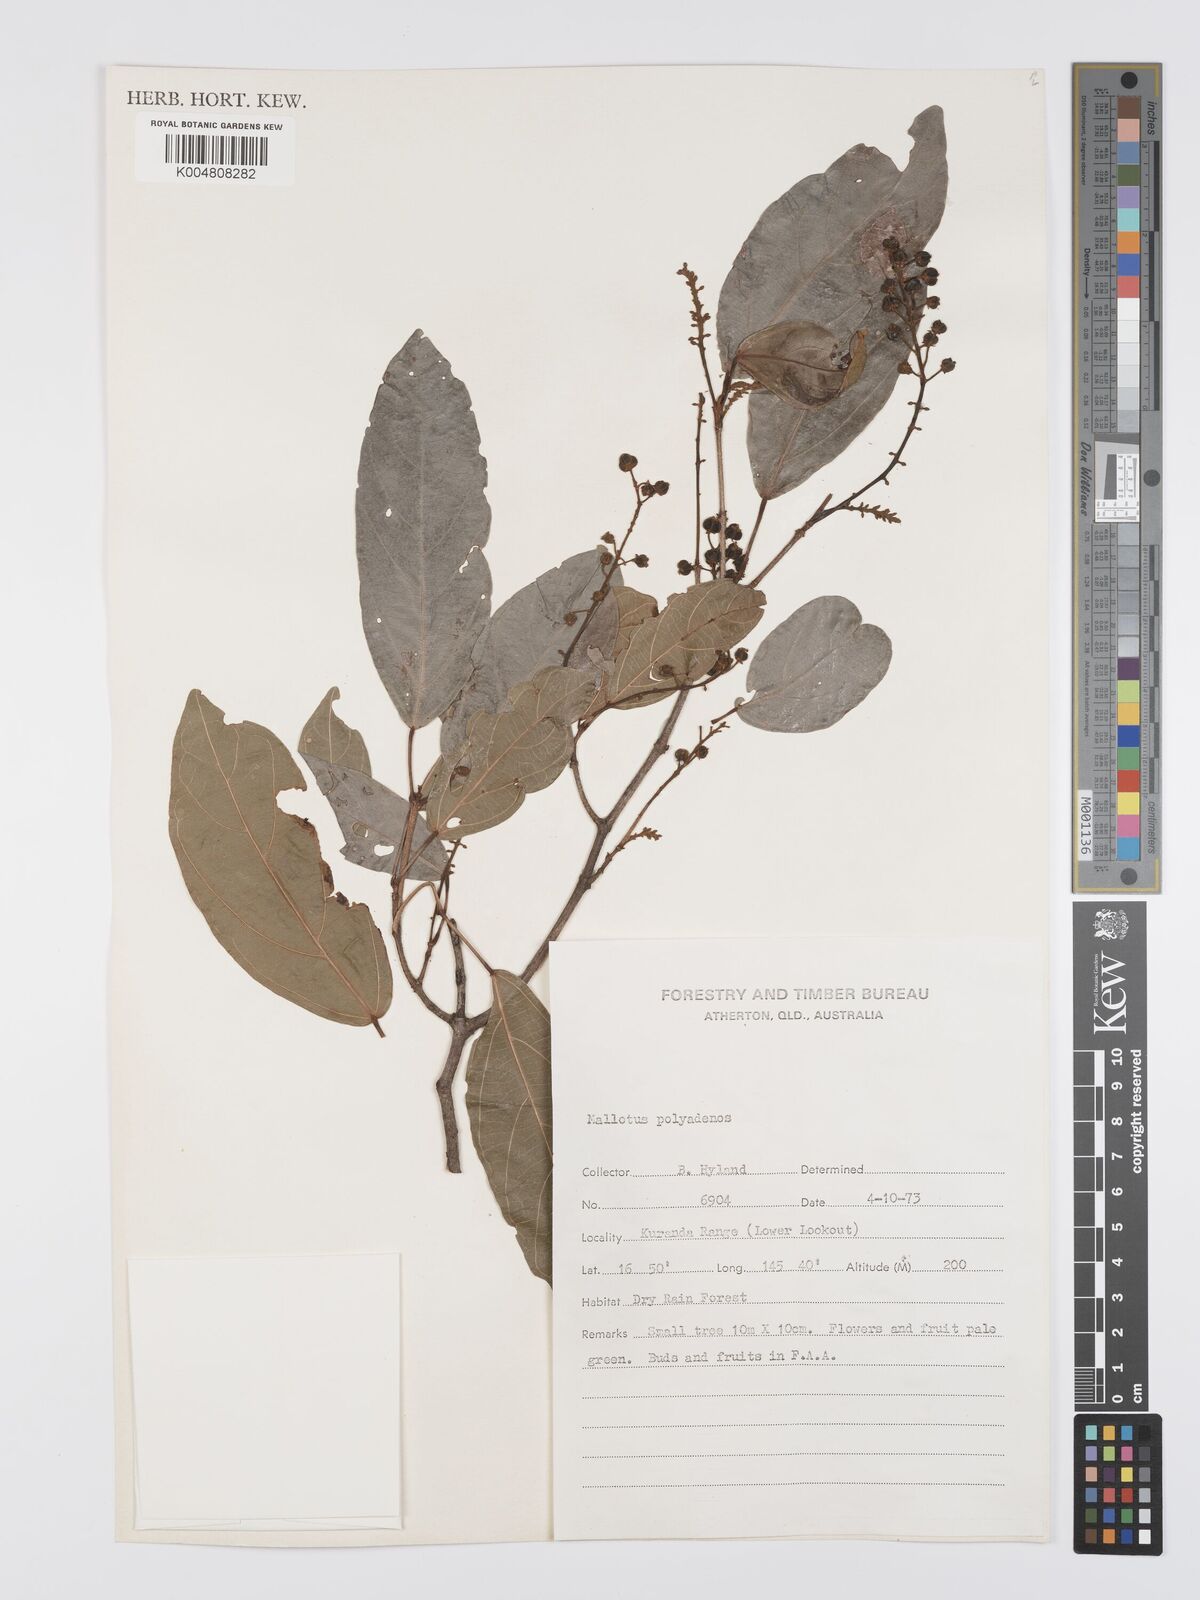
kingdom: Plantae
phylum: Tracheophyta
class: Magnoliopsida
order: Malpighiales
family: Euphorbiaceae
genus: Mallotus
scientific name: Mallotus polyadenos
